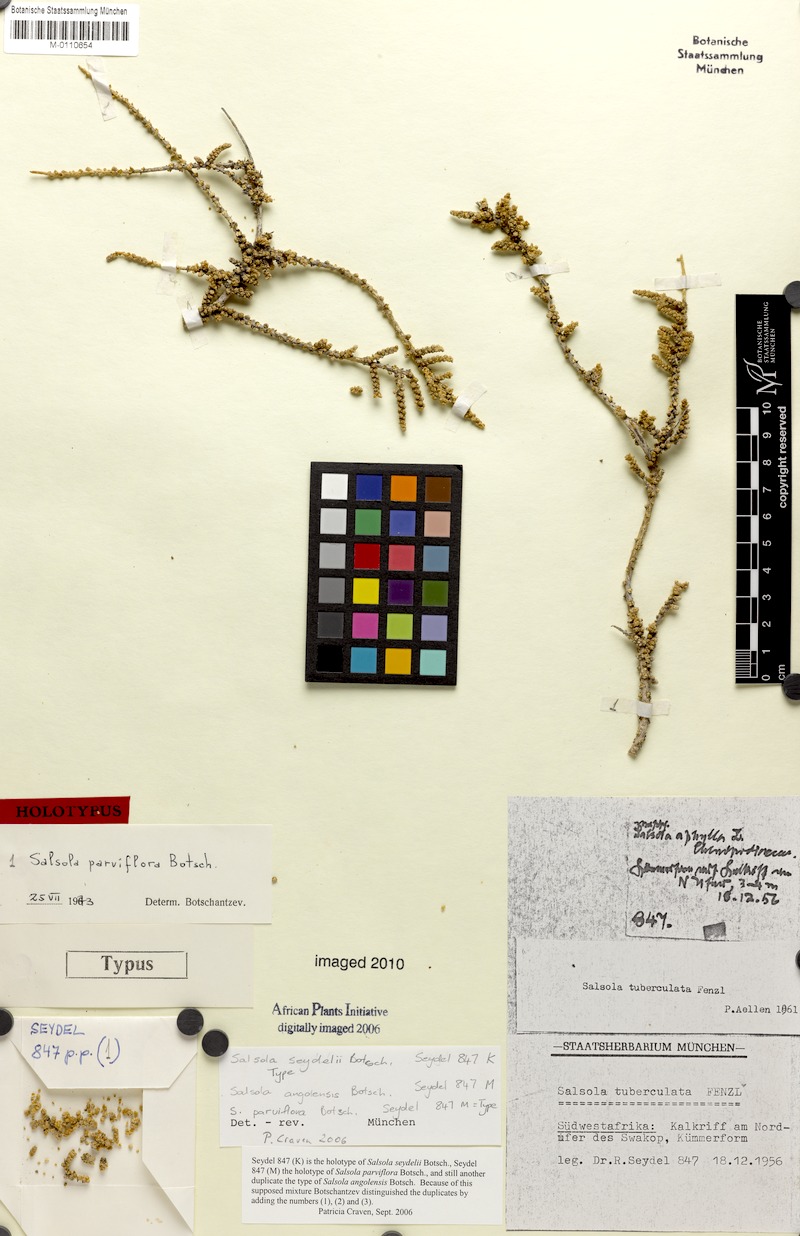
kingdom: Plantae
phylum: Tracheophyta
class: Magnoliopsida
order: Caryophyllales
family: Amaranthaceae
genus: Caroxylon
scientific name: Caroxylon parviflorum
